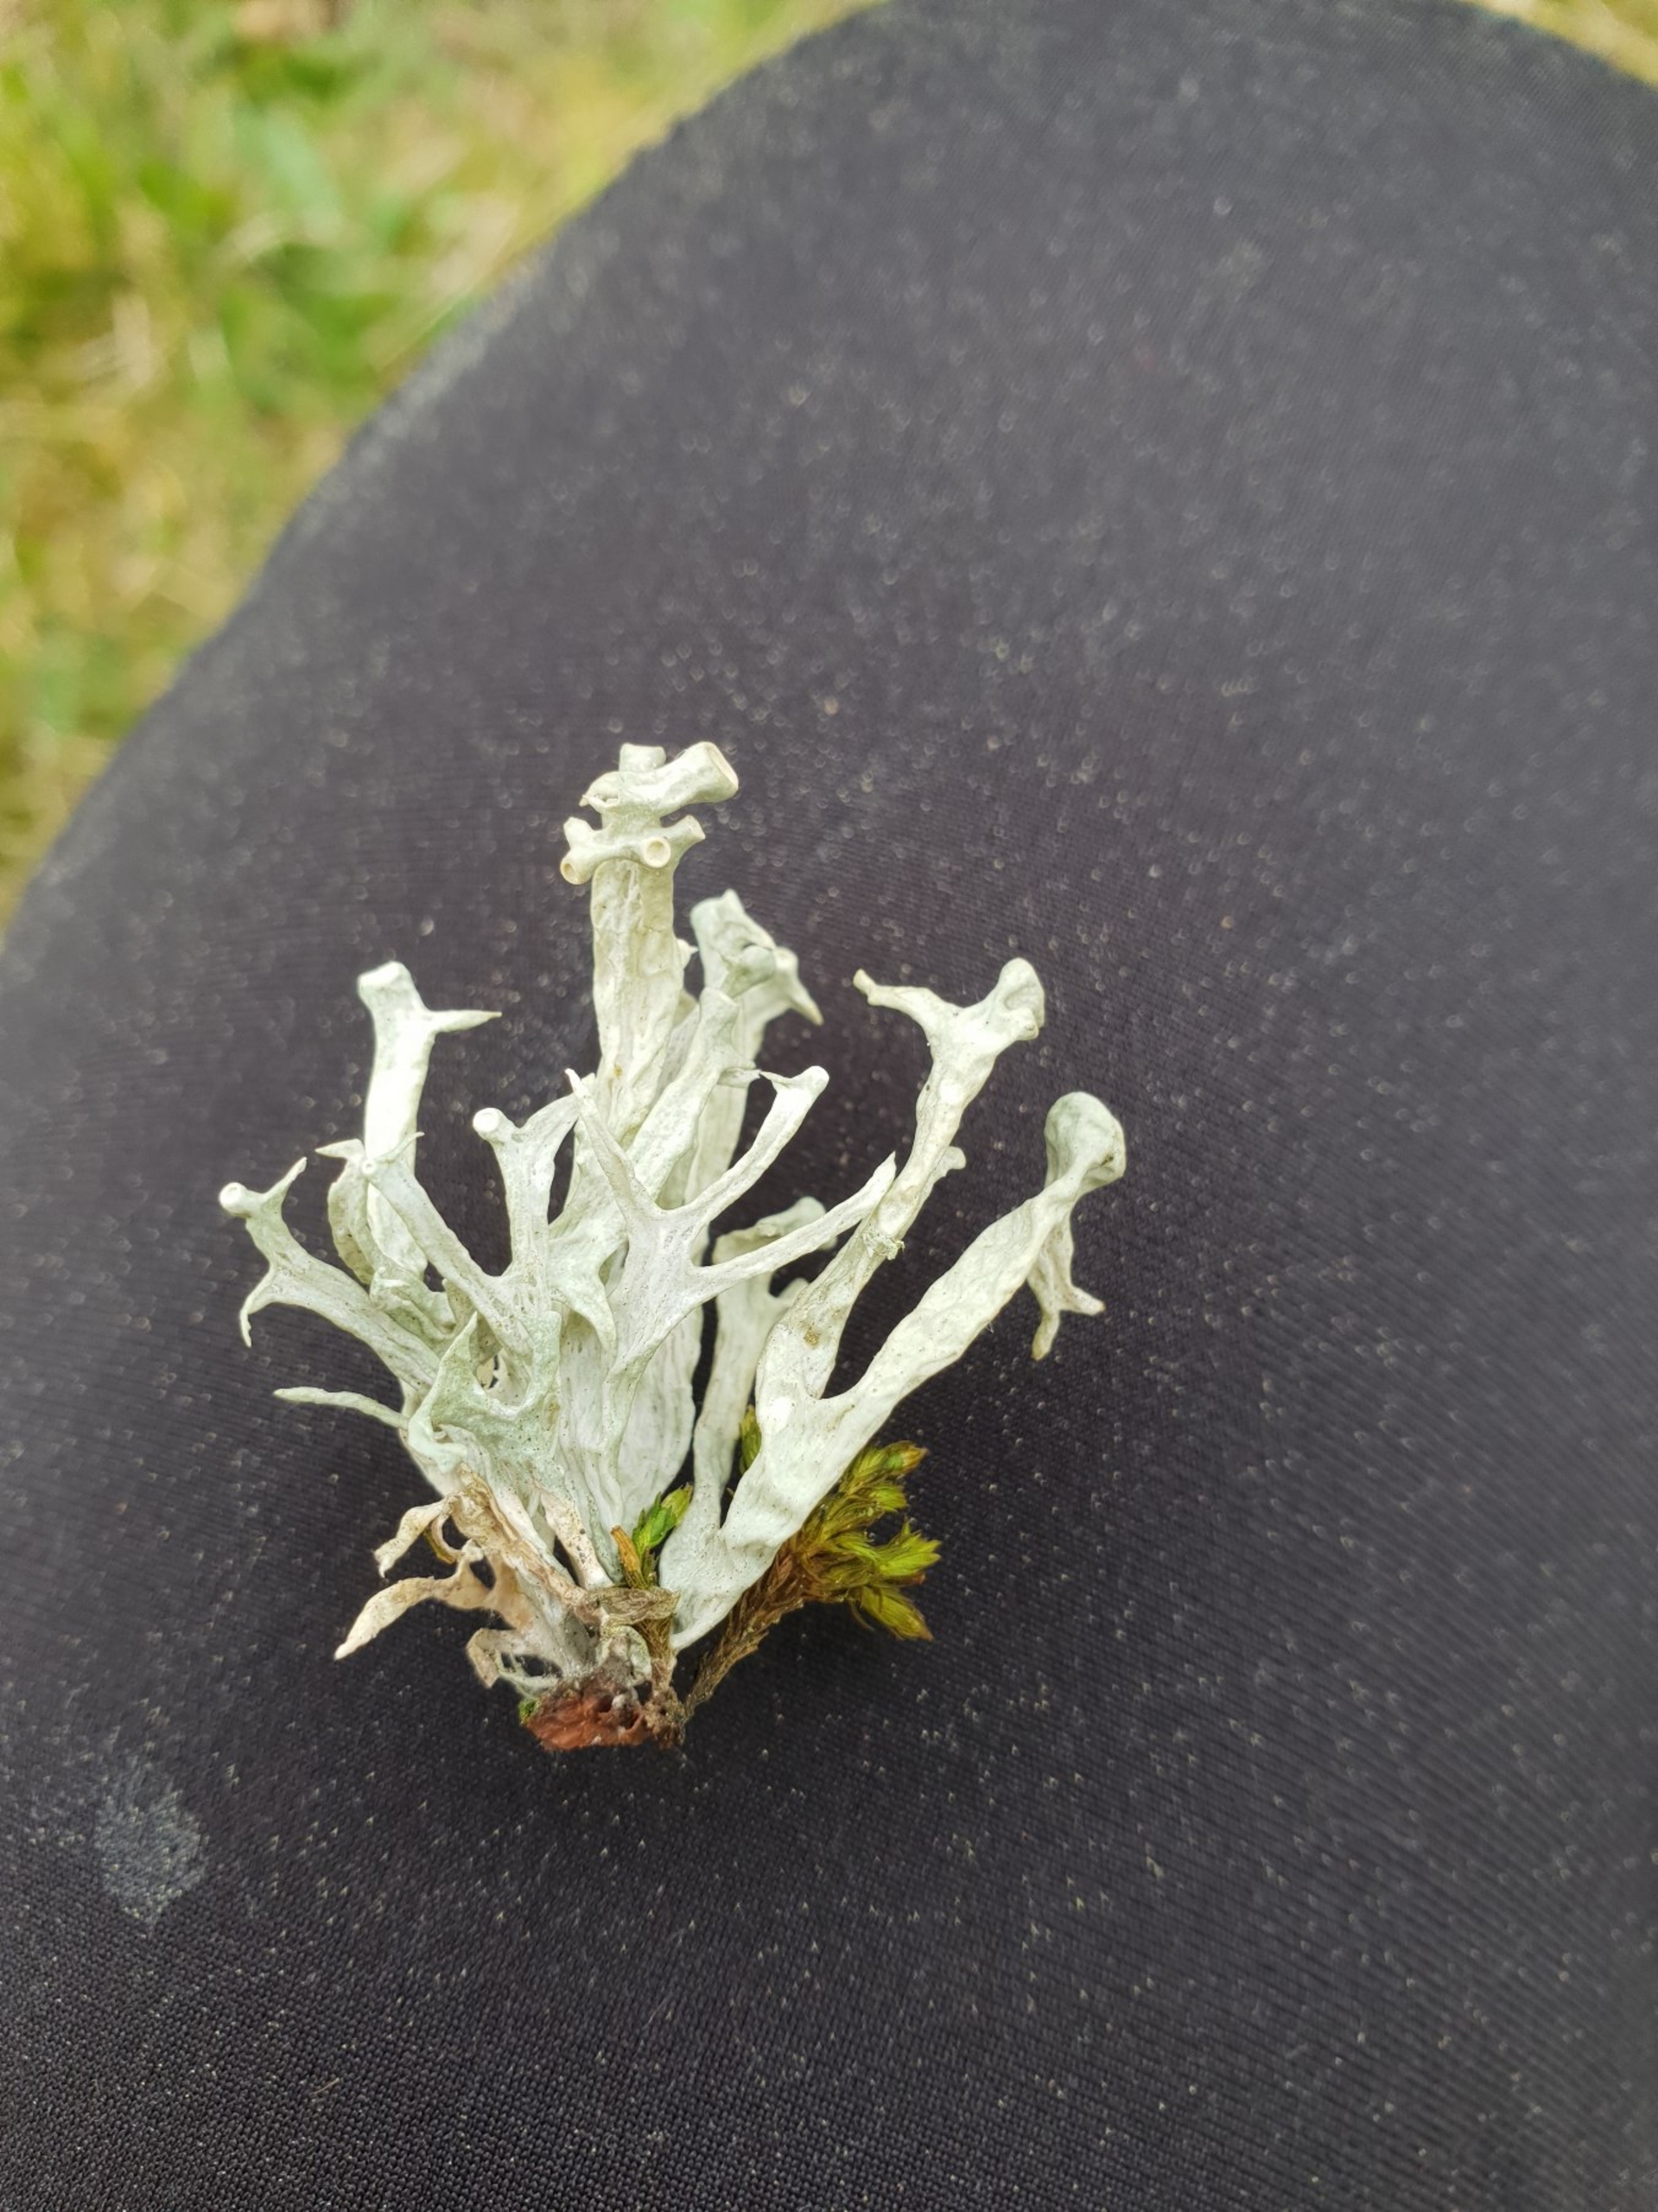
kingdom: Fungi
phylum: Ascomycota
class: Lecanoromycetes
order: Lecanorales
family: Ramalinaceae
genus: Ramalina
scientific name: Ramalina fastigiata
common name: Tue-grenlav
